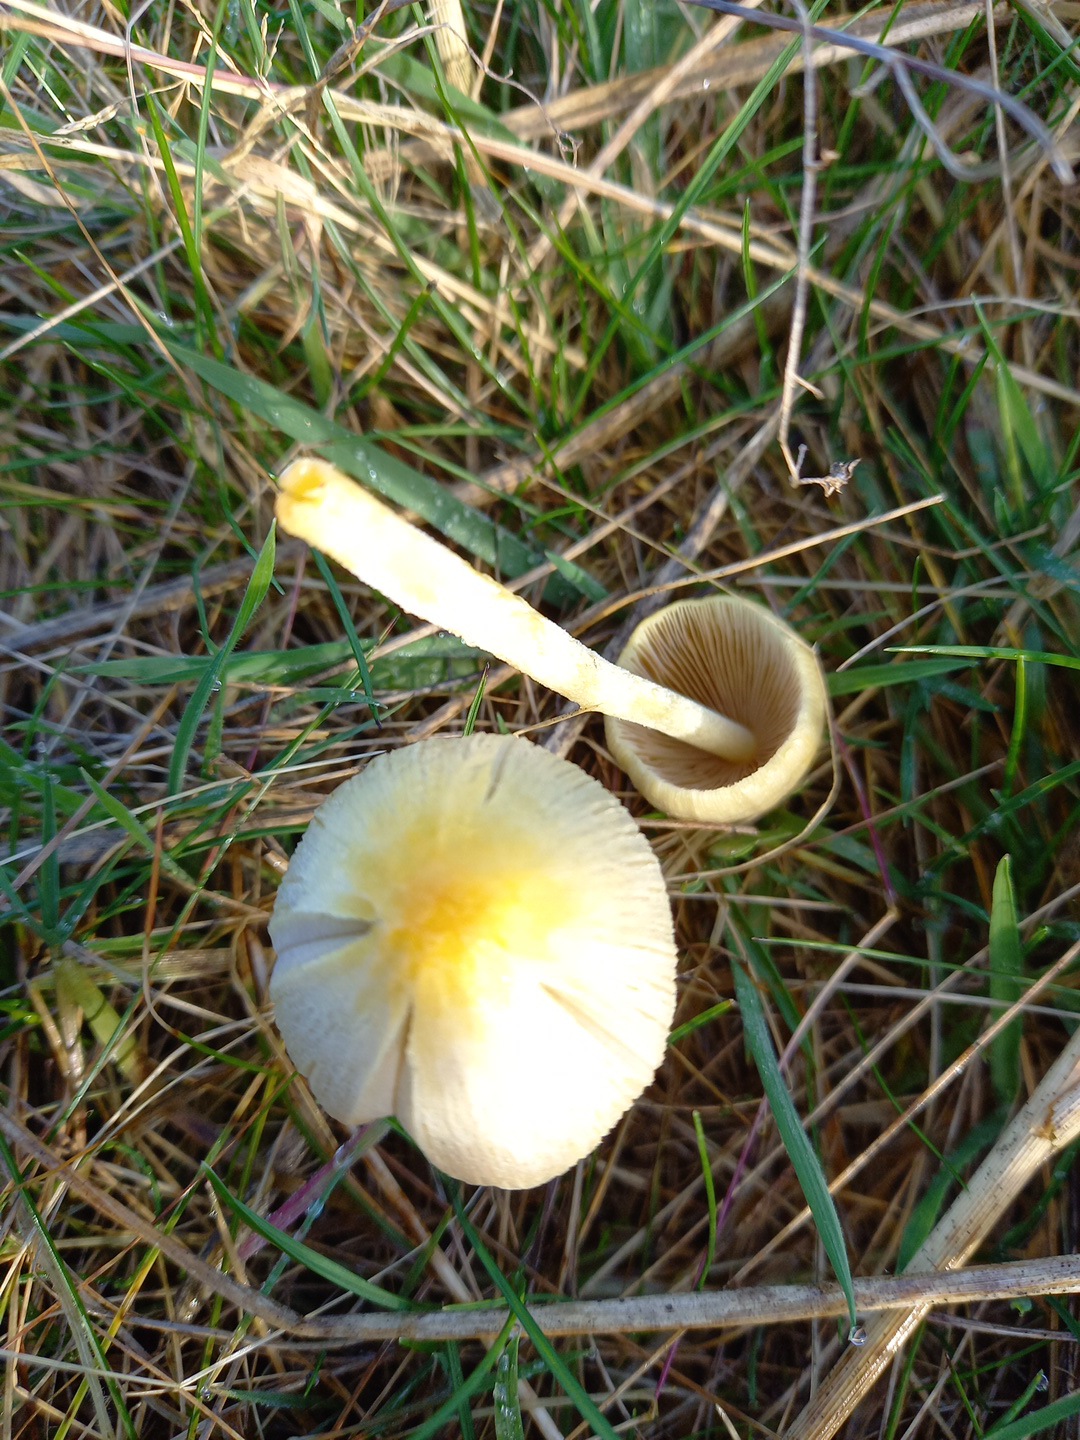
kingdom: Fungi
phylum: Basidiomycota
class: Agaricomycetes
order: Agaricales
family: Bolbitiaceae
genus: Bolbitius
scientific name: Bolbitius titubans
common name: almindelig gulhat
